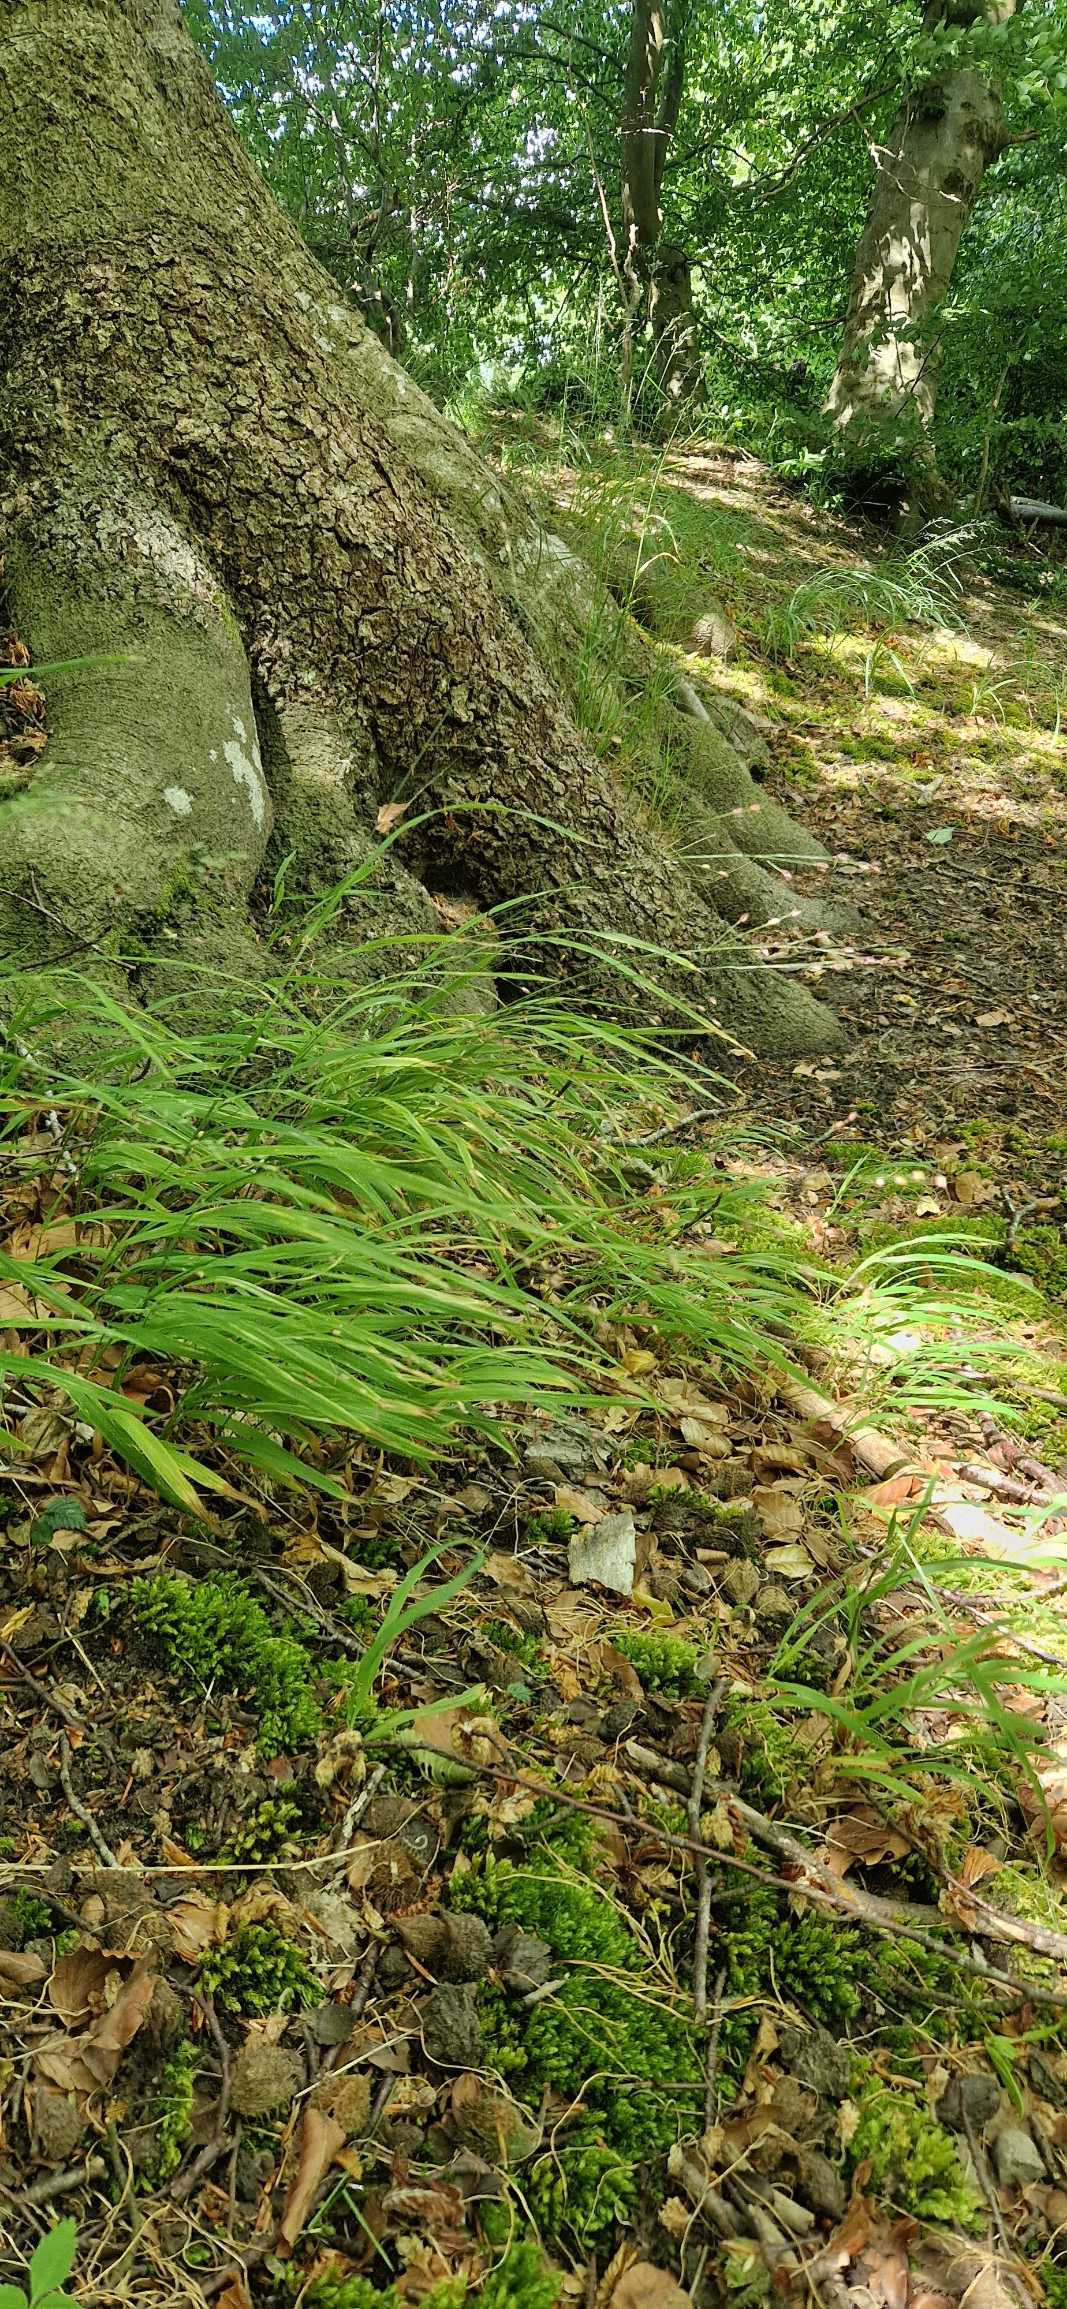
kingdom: Plantae
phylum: Tracheophyta
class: Liliopsida
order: Poales
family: Poaceae
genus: Melica
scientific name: Melica uniflora
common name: Enblomstret flitteraks
